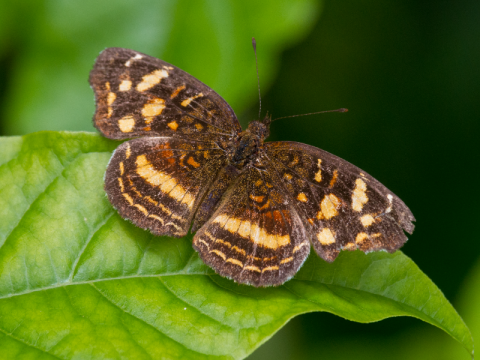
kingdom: Animalia
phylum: Arthropoda
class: Insecta
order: Lepidoptera
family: Nymphalidae
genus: Anthanassa
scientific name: Anthanassa drusilla
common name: Orange-patched Crescent
